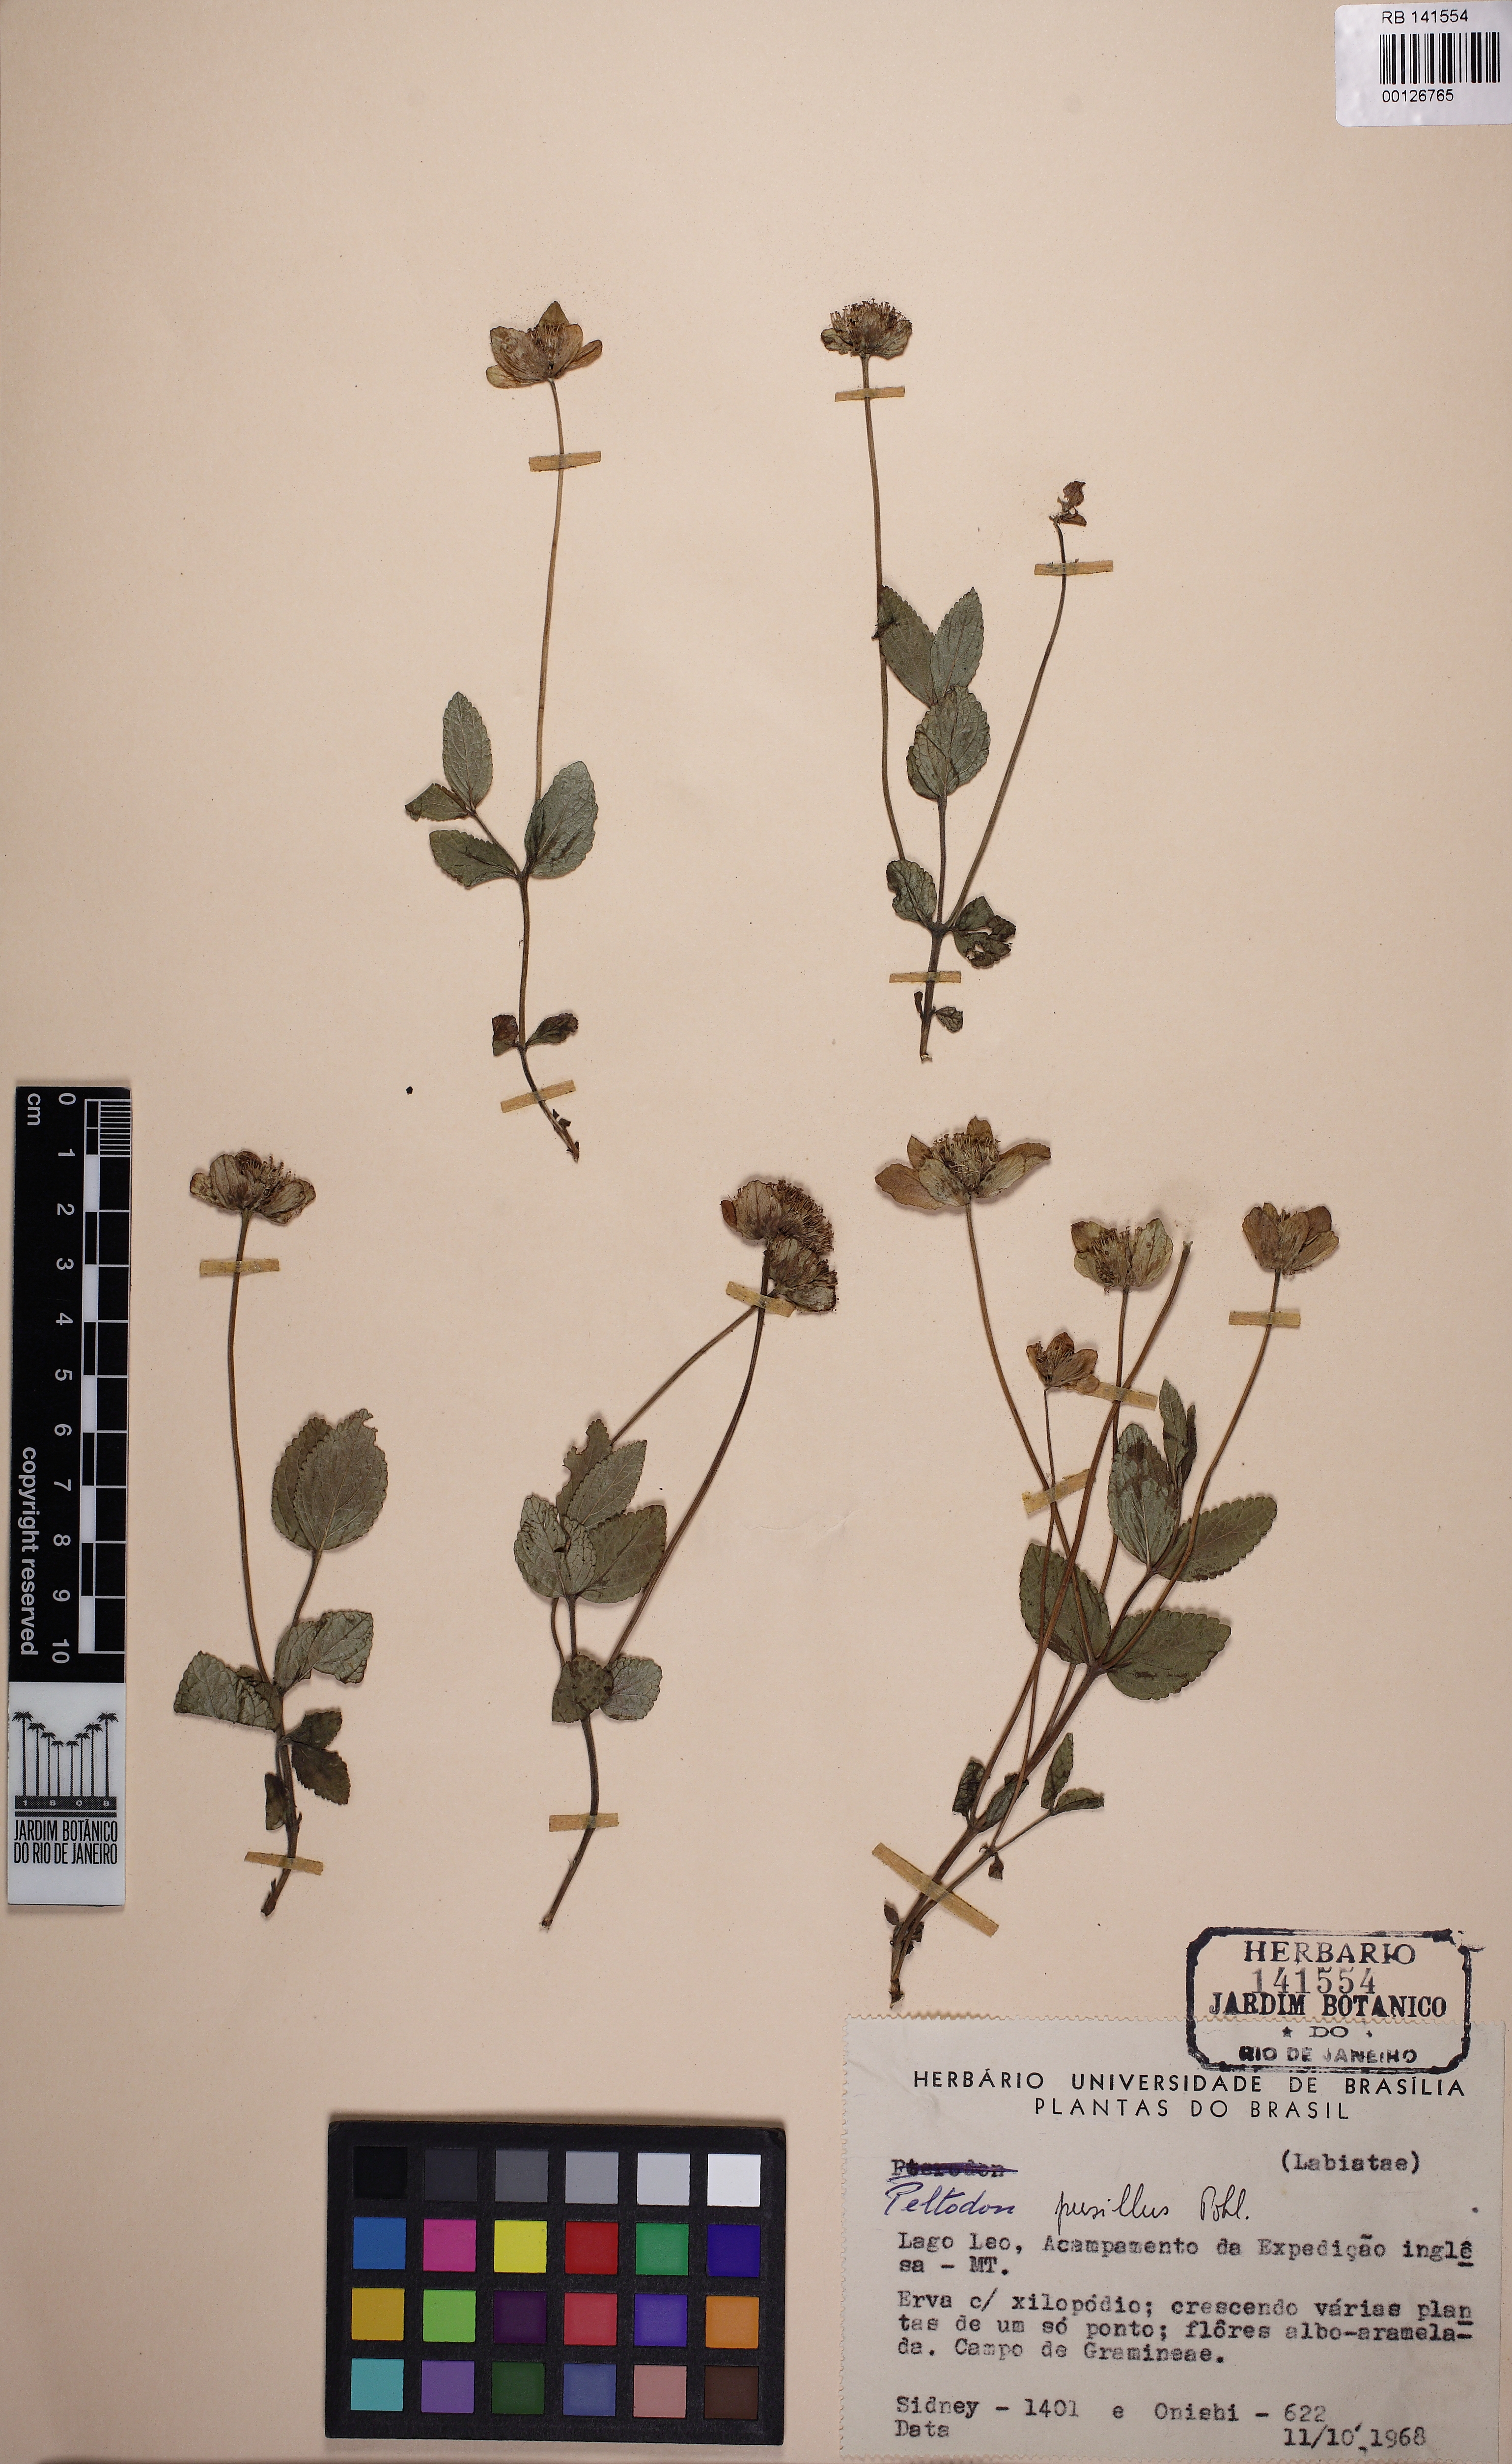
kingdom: Plantae
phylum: Tracheophyta
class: Magnoliopsida
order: Lamiales
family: Lamiaceae
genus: Hyptis
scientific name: Hyptis pusilla
